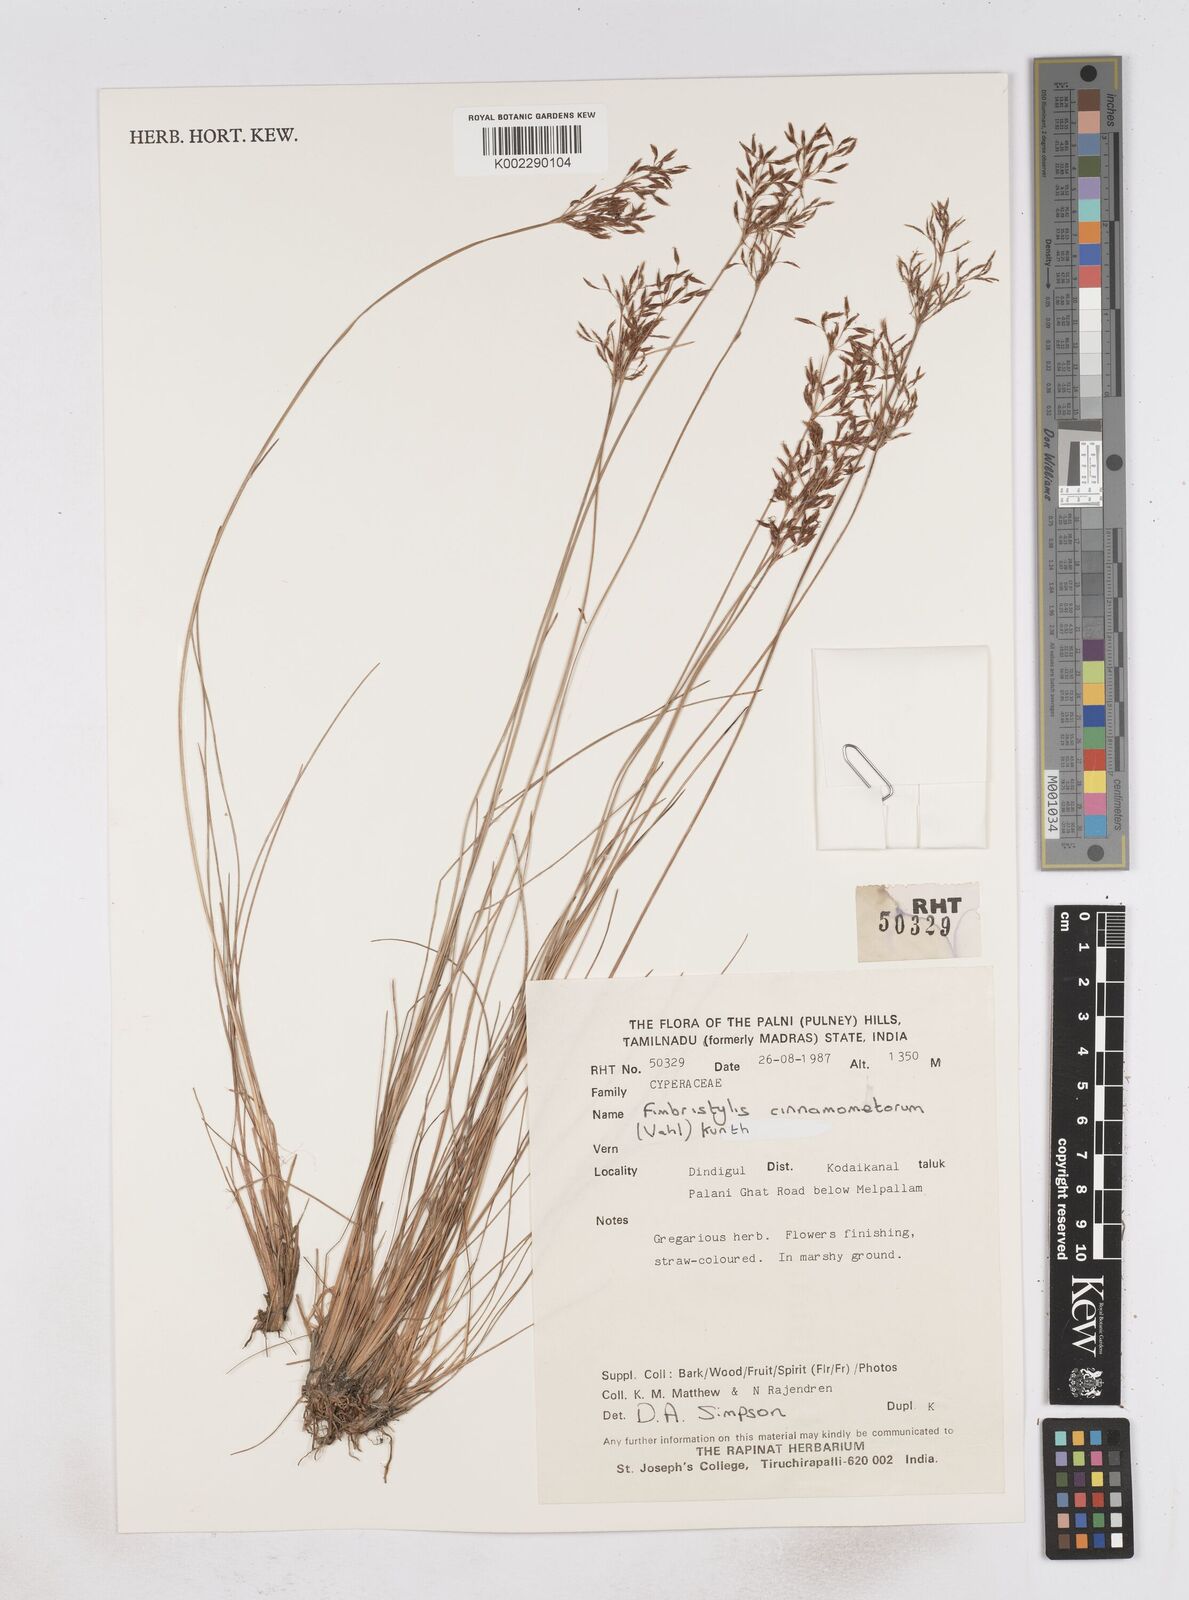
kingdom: Plantae
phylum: Tracheophyta
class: Liliopsida
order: Poales
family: Cyperaceae
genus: Fimbristylis
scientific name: Fimbristylis cinnamometorum
